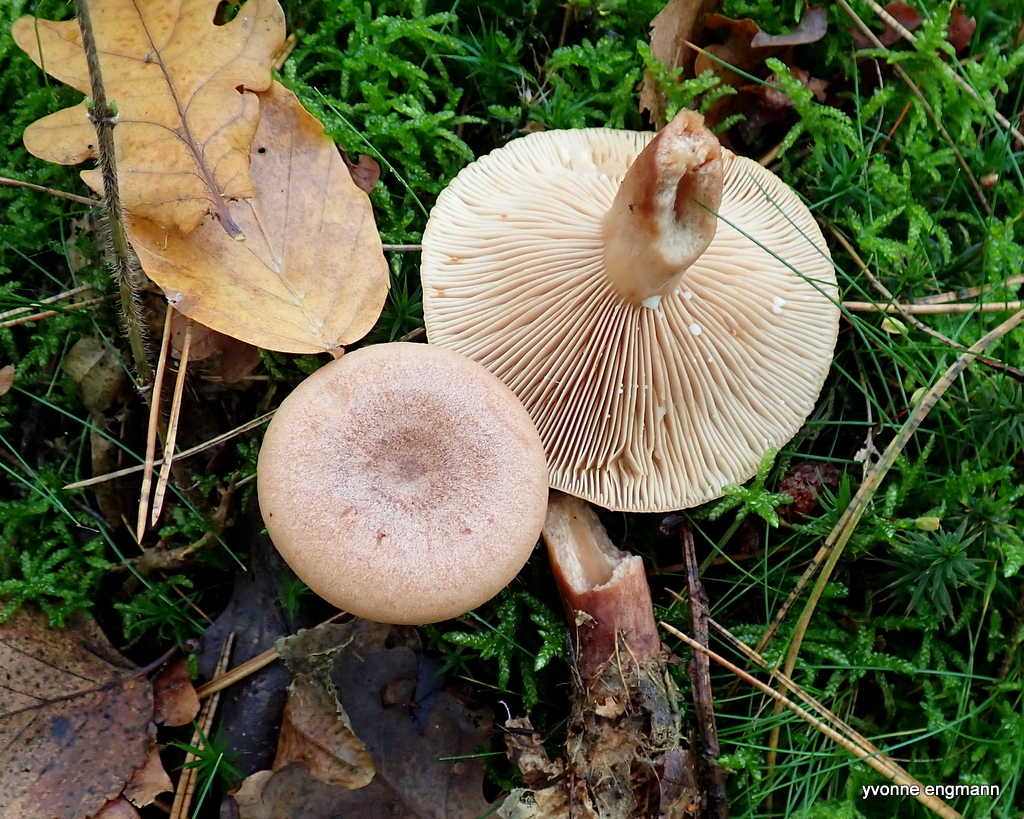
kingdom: Fungi
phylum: Basidiomycota
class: Agaricomycetes
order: Russulales
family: Russulaceae
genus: Lactarius
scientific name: Lactarius quietus
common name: ege-mælkehat
